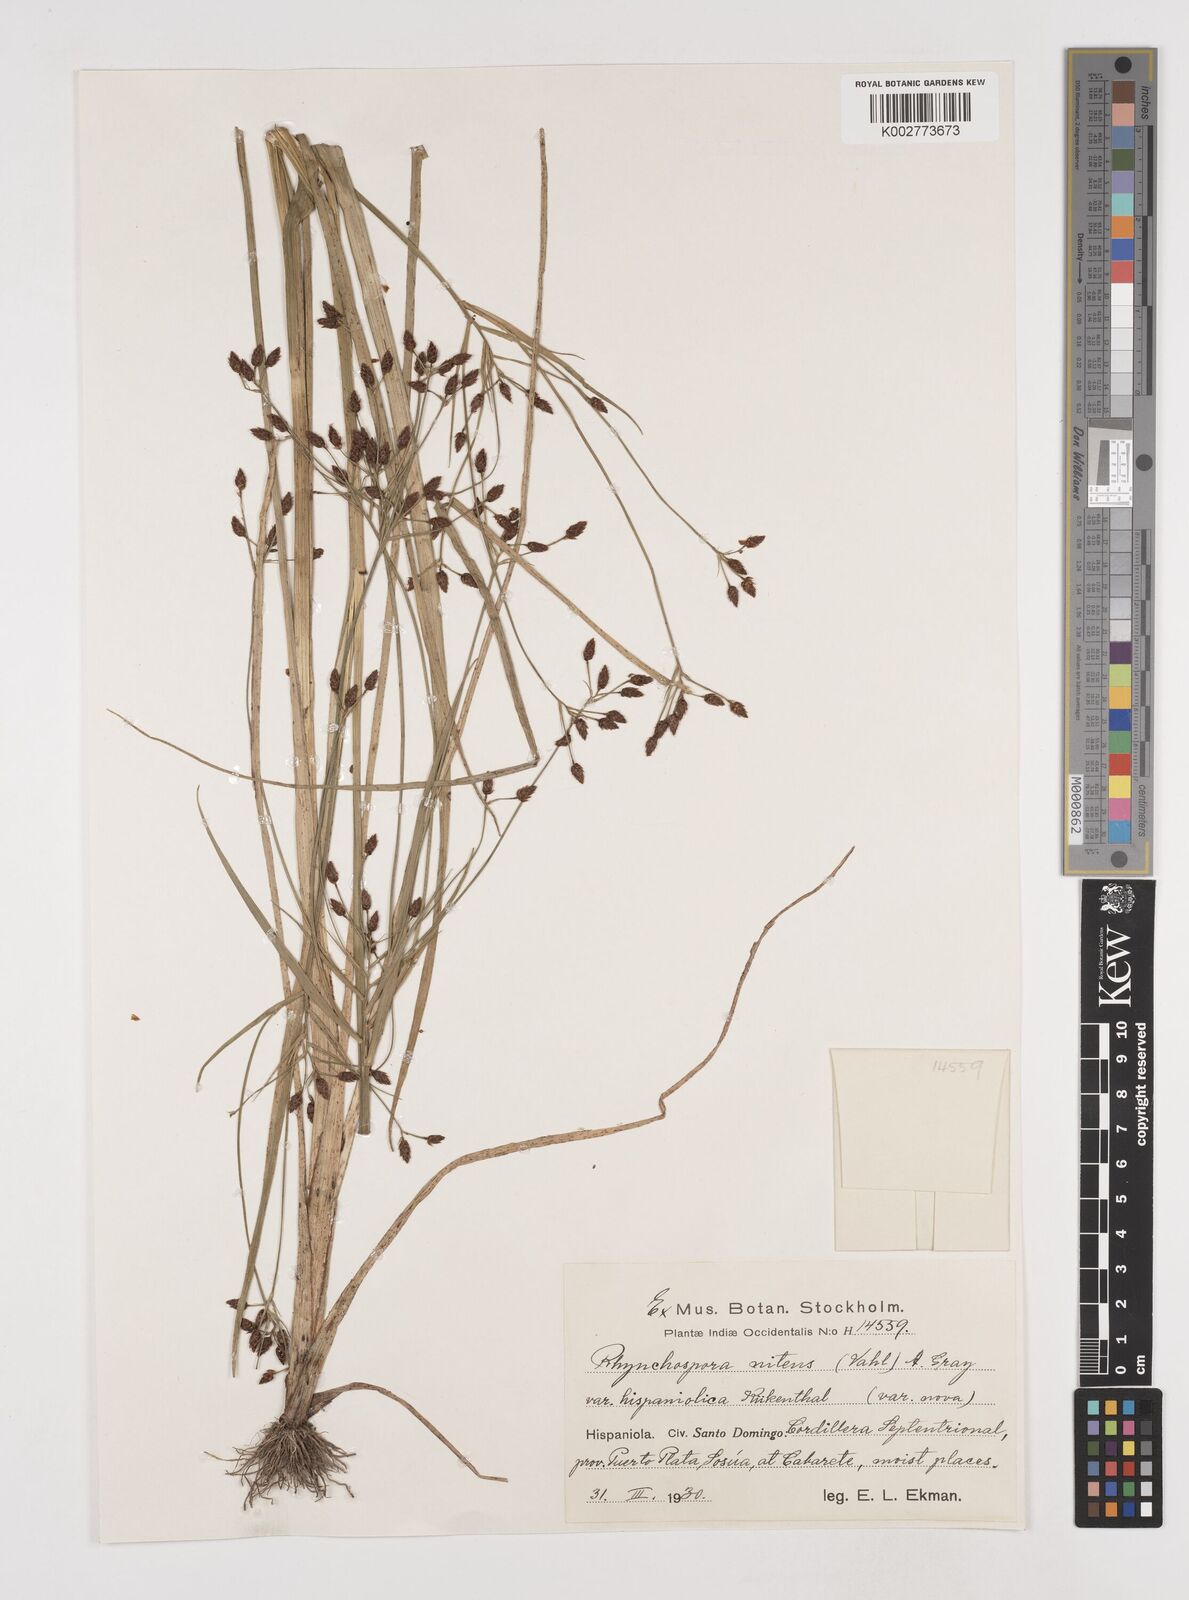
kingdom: Plantae
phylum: Tracheophyta
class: Liliopsida
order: Poales
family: Cyperaceae
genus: Rhynchospora
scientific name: Rhynchospora nitens
